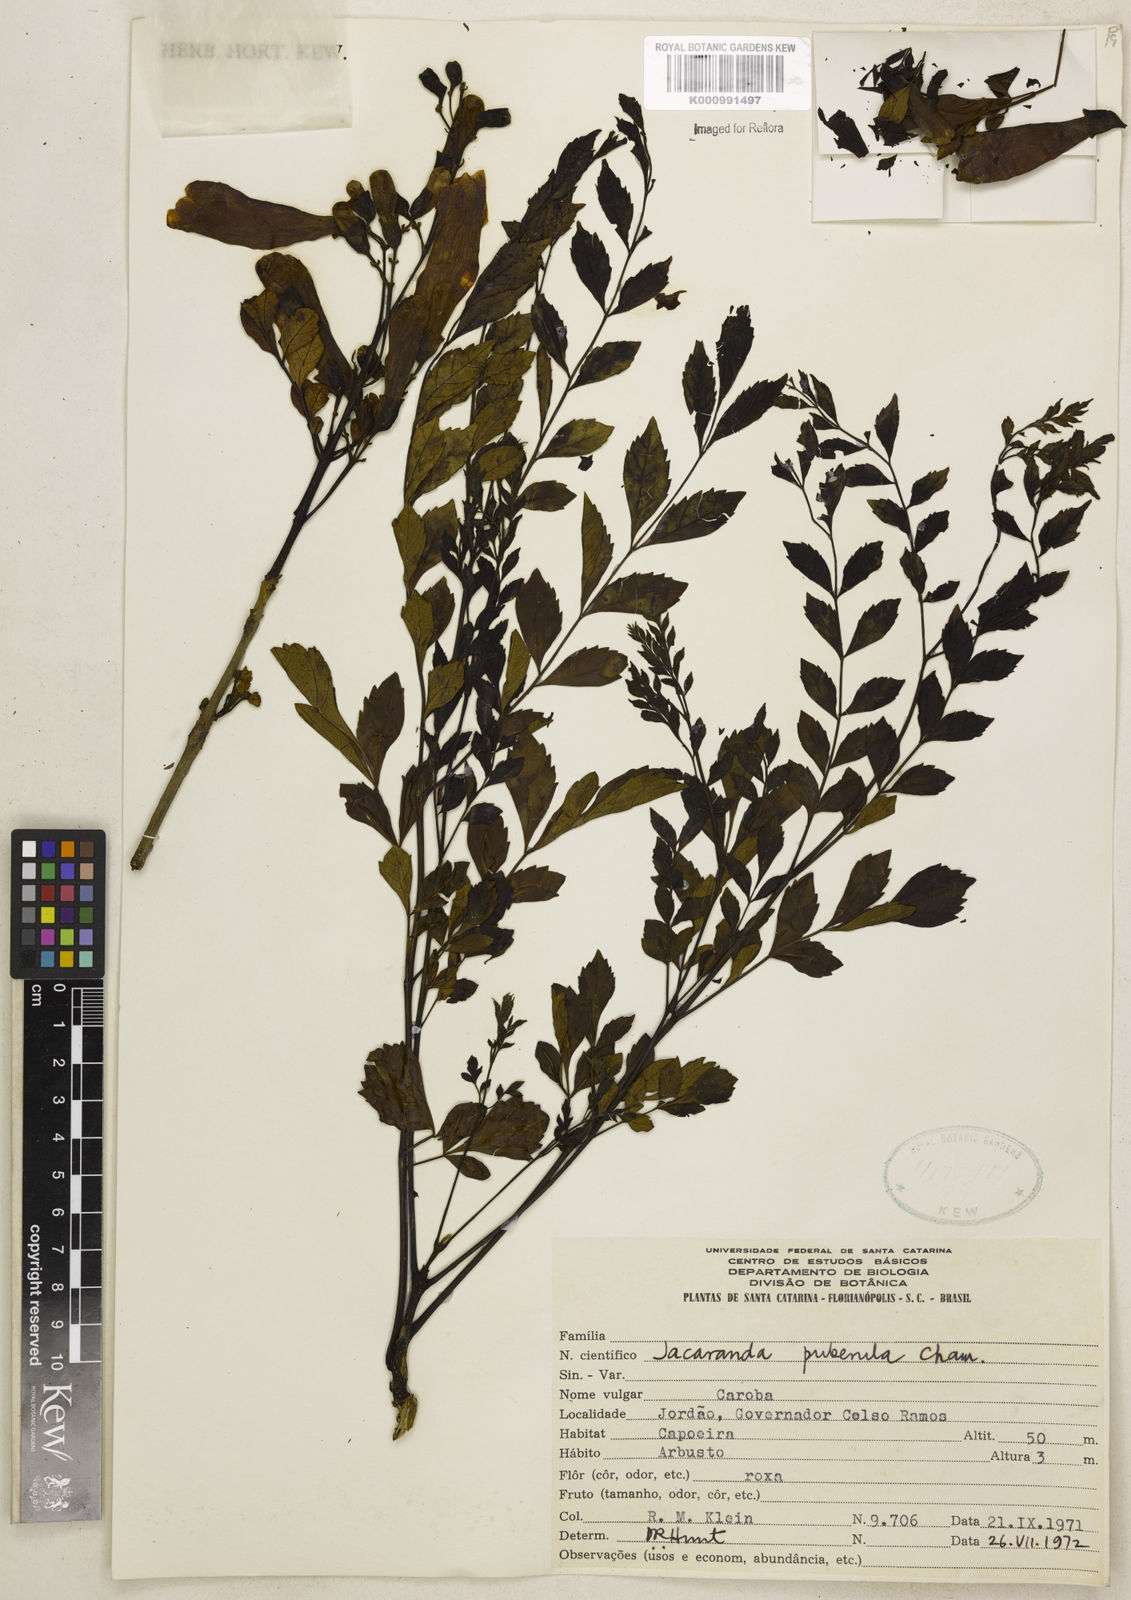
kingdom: Plantae
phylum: Tracheophyta
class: Magnoliopsida
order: Lamiales
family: Bignoniaceae
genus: Jacaranda
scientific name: Jacaranda puberula
